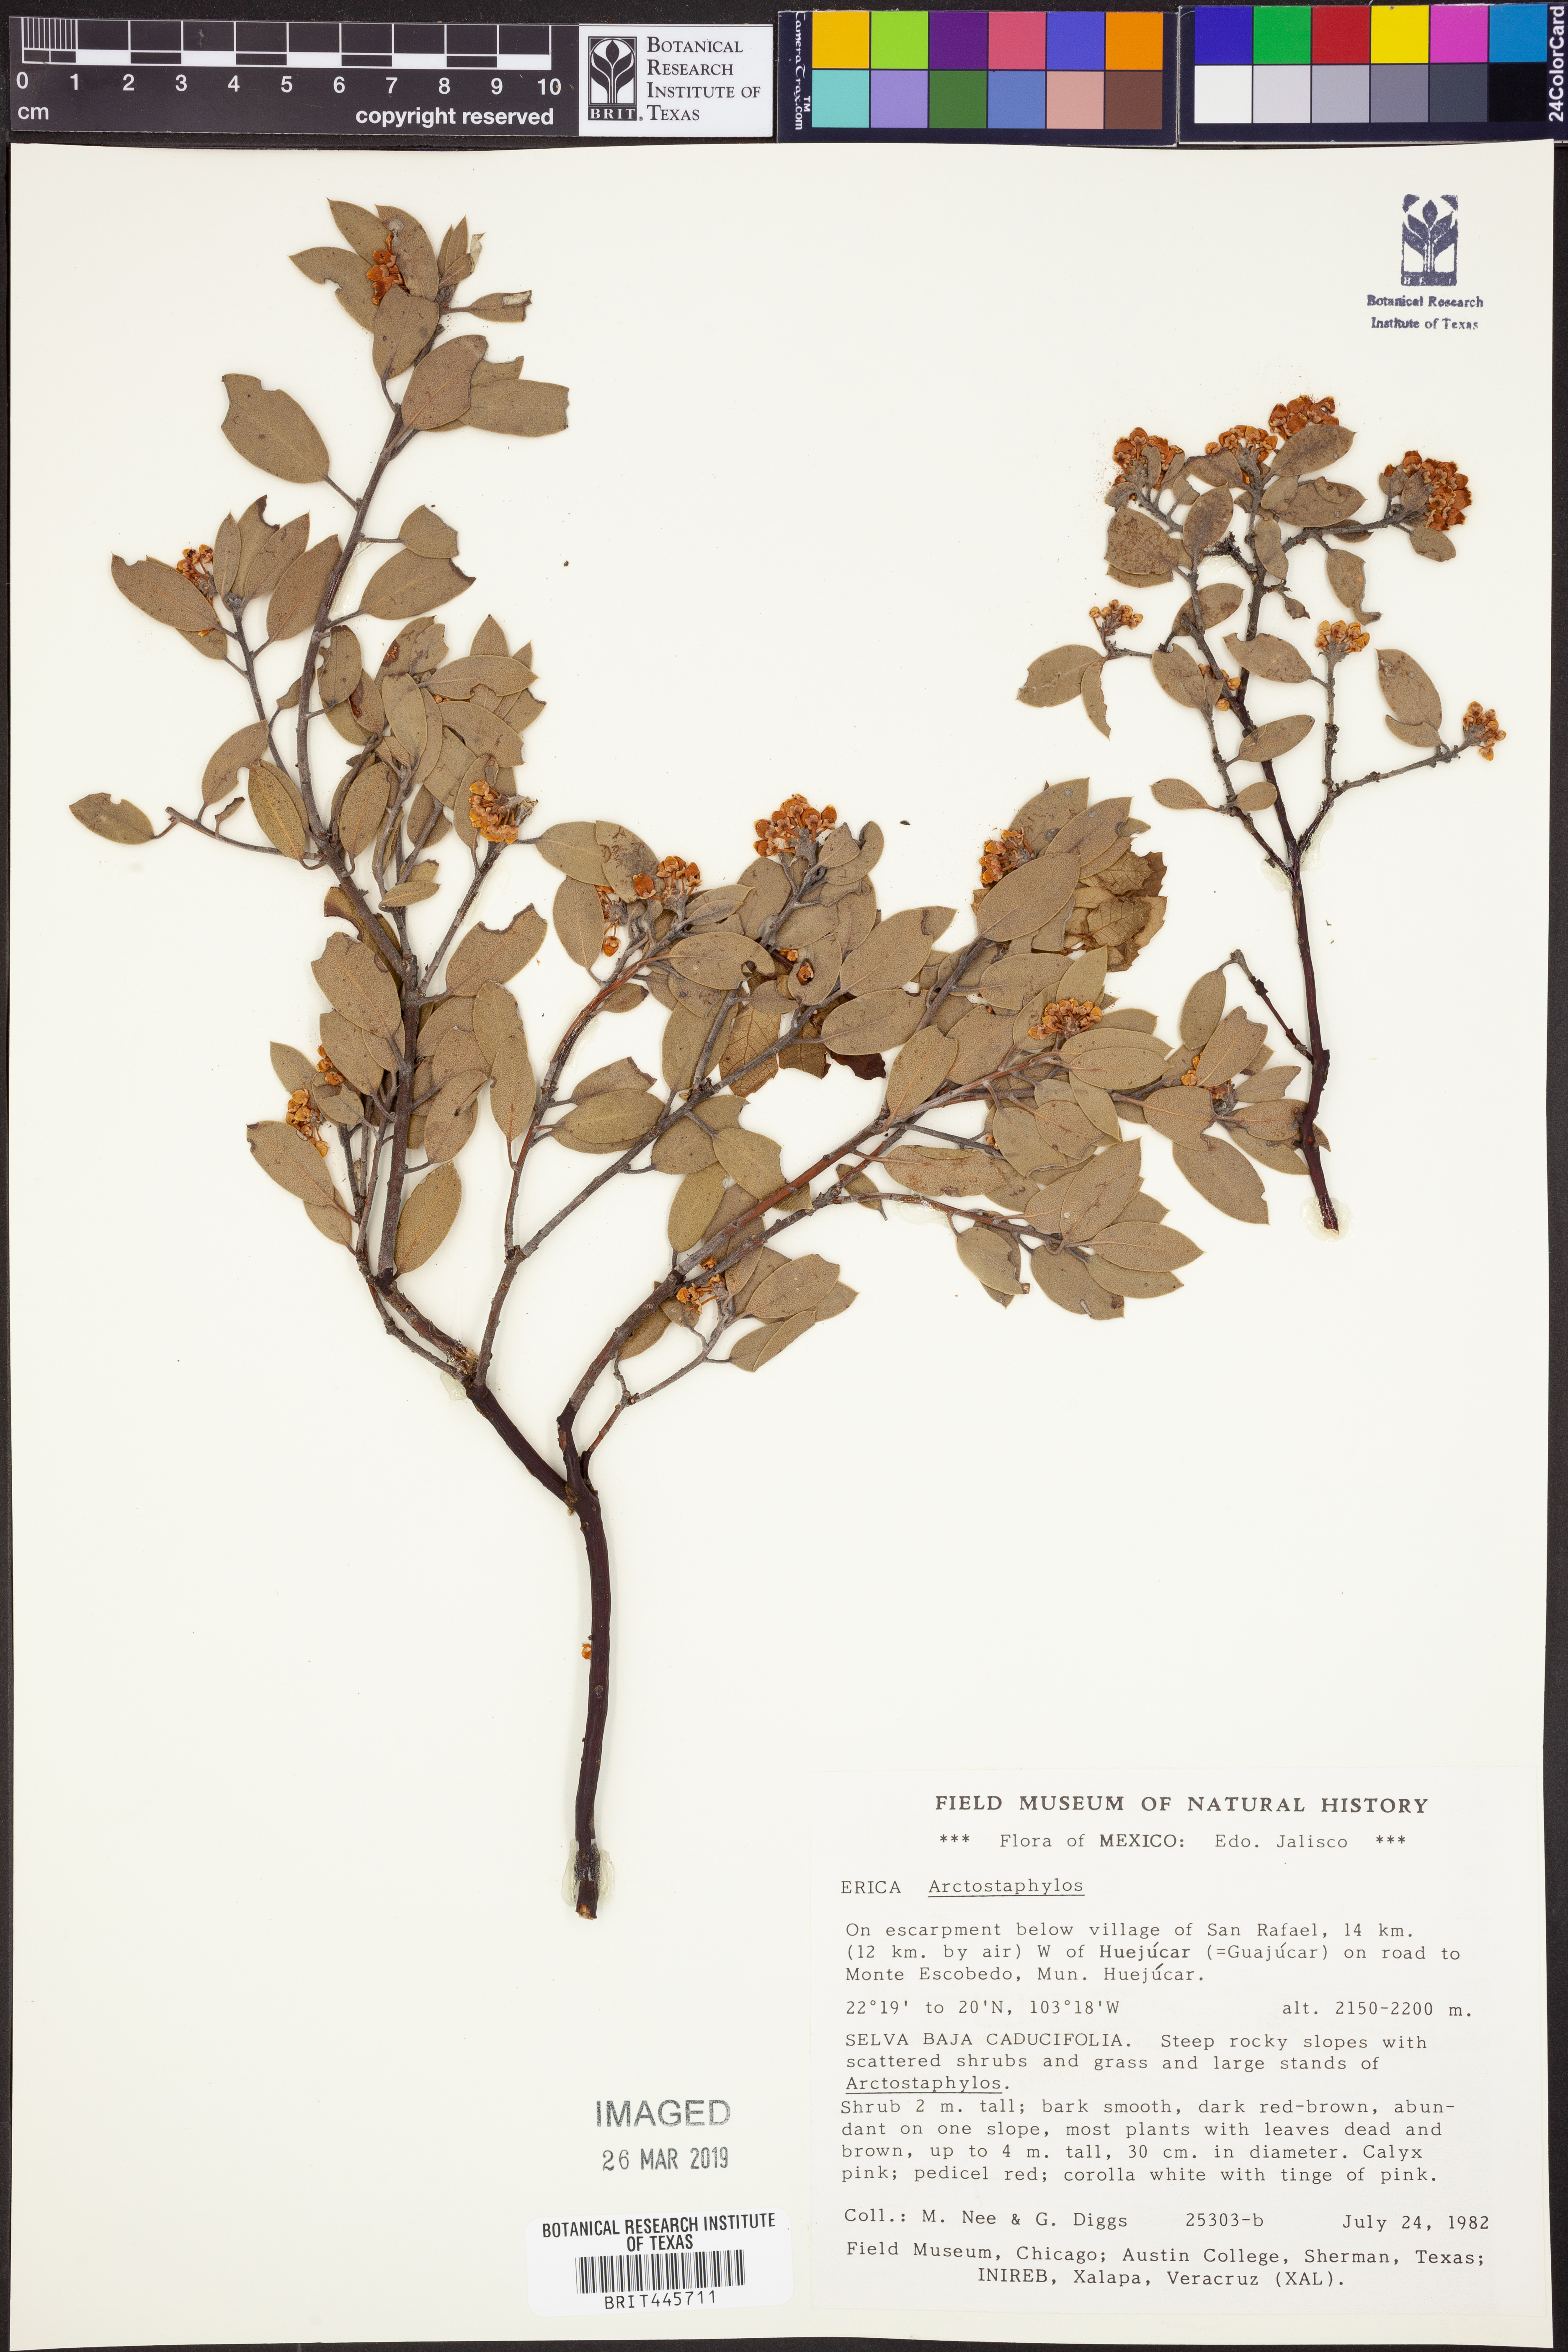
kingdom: Plantae
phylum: Tracheophyta
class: Magnoliopsida
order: Ericales
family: Ericaceae
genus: Arctostaphylos
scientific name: Arctostaphylos
